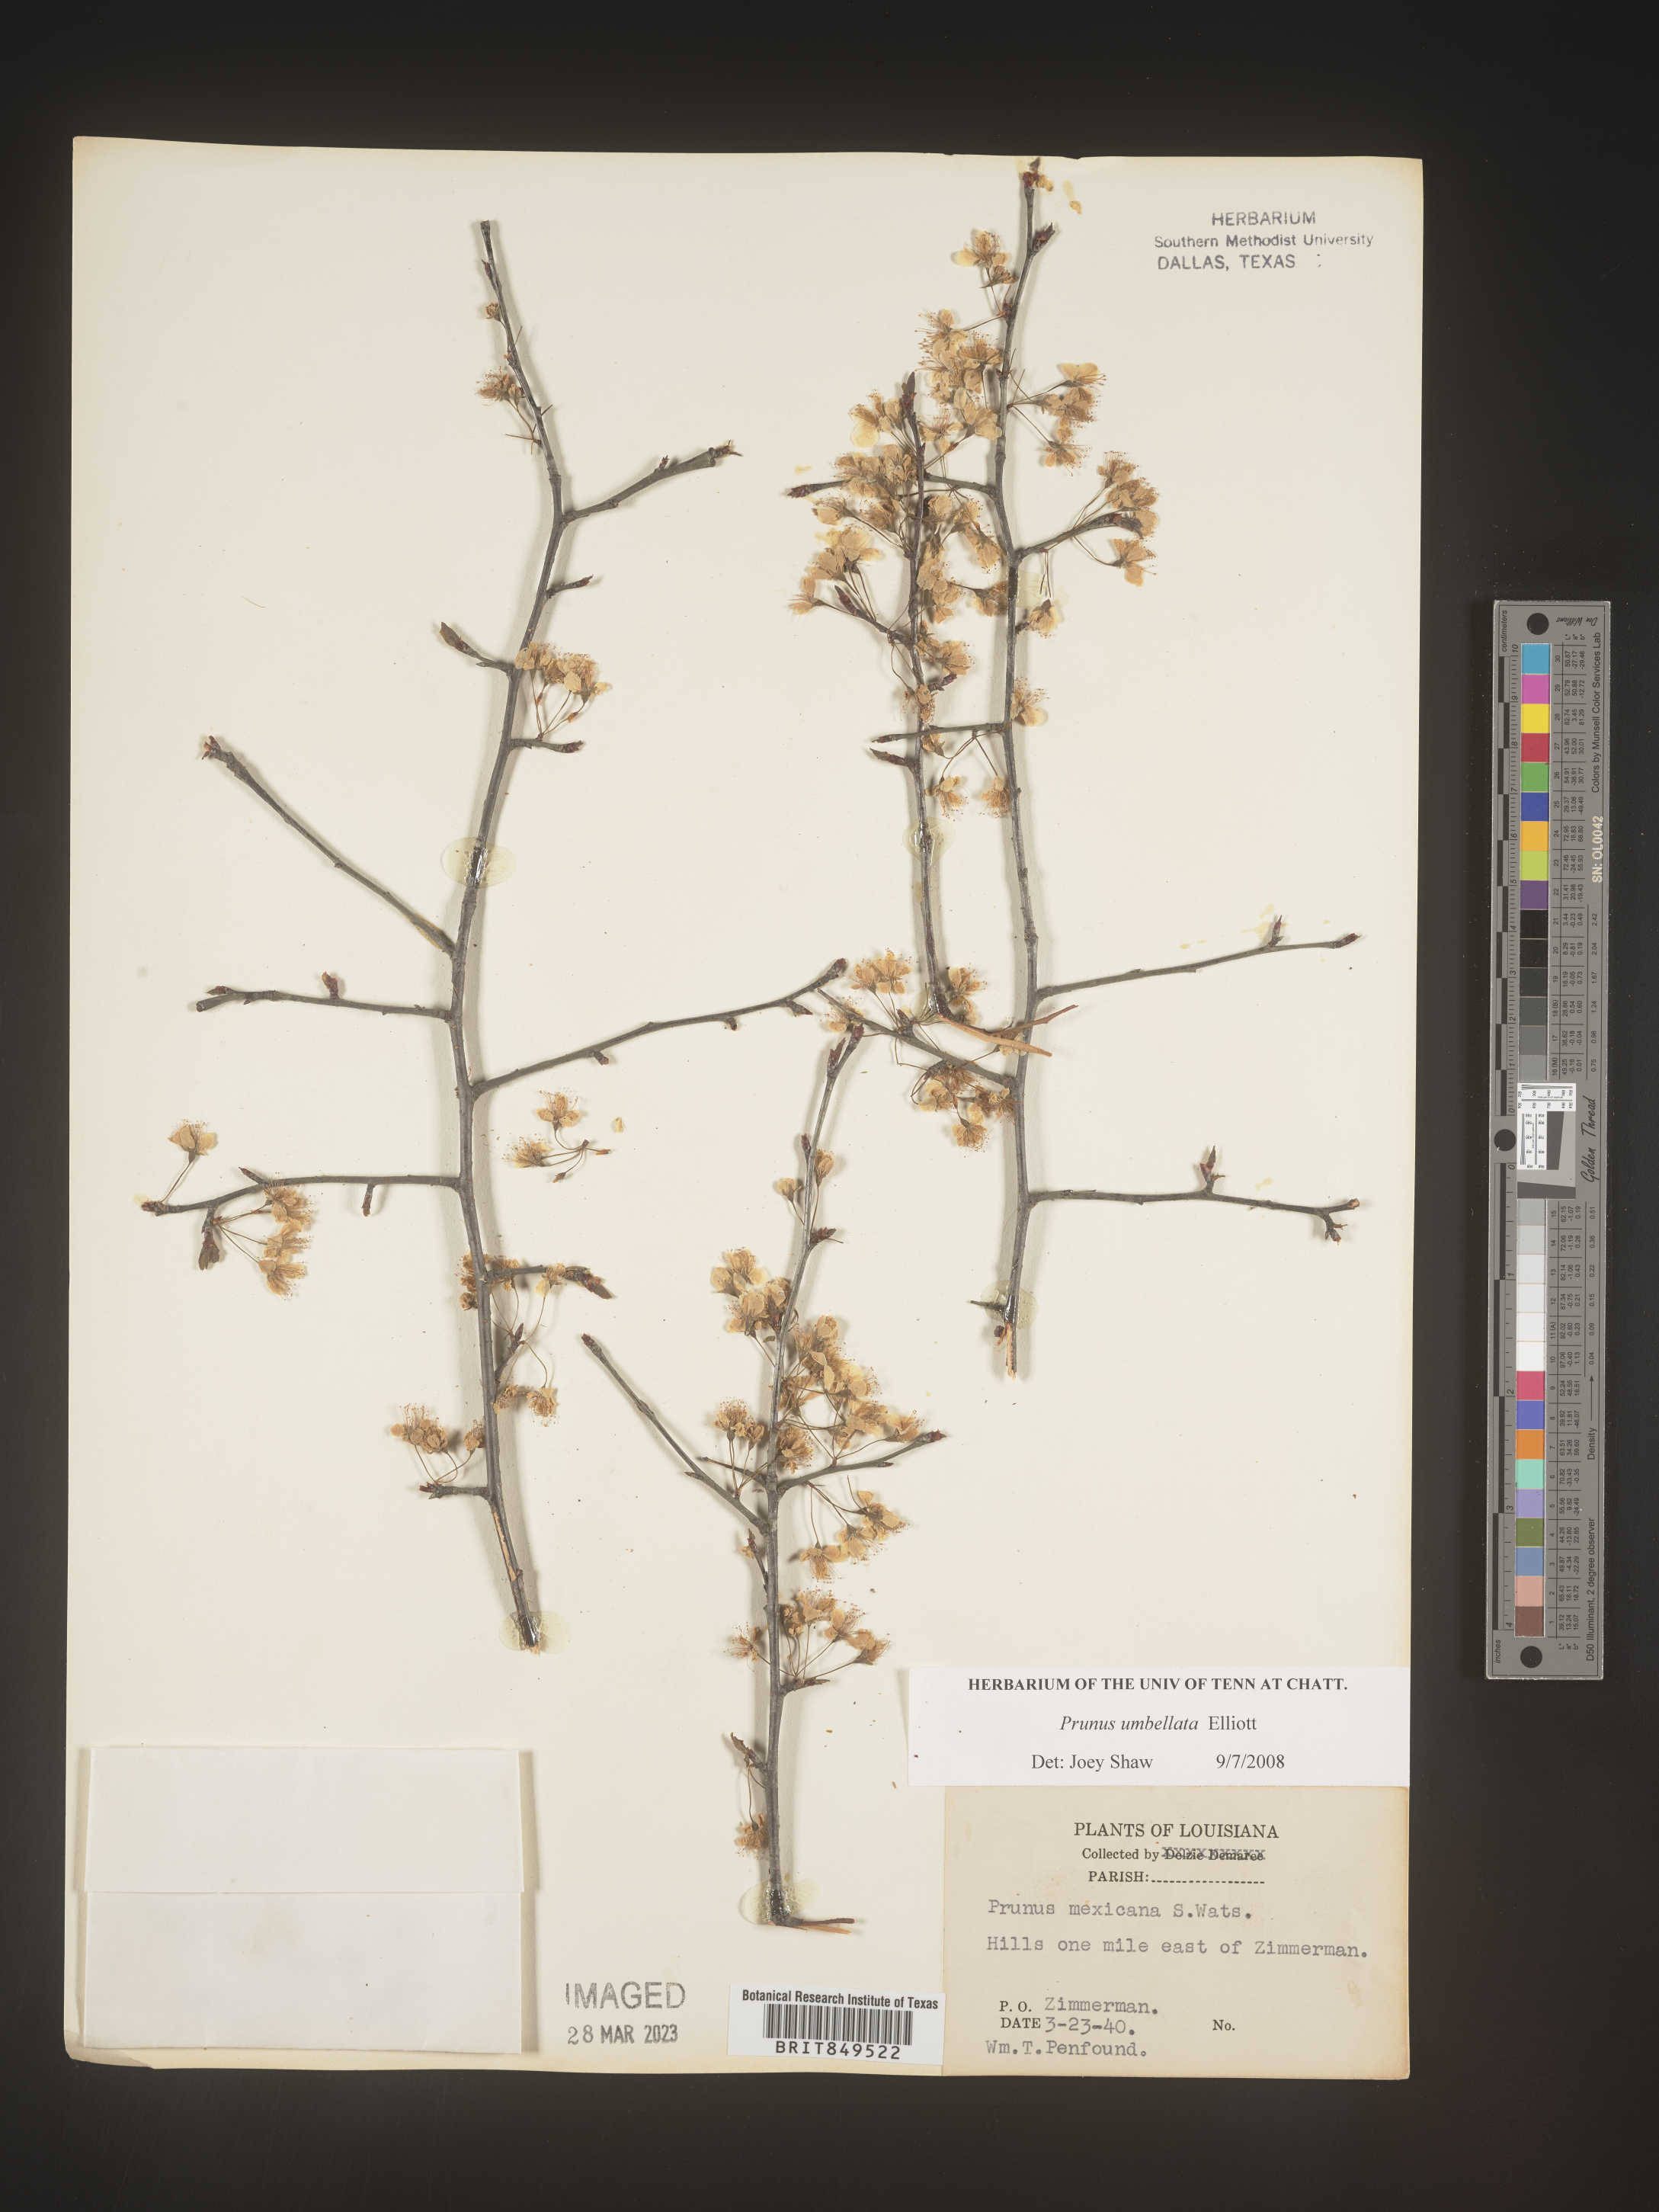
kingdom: Plantae
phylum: Tracheophyta
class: Magnoliopsida
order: Rosales
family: Rosaceae
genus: Prunus
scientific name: Prunus umbellata
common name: Allegheny plum
